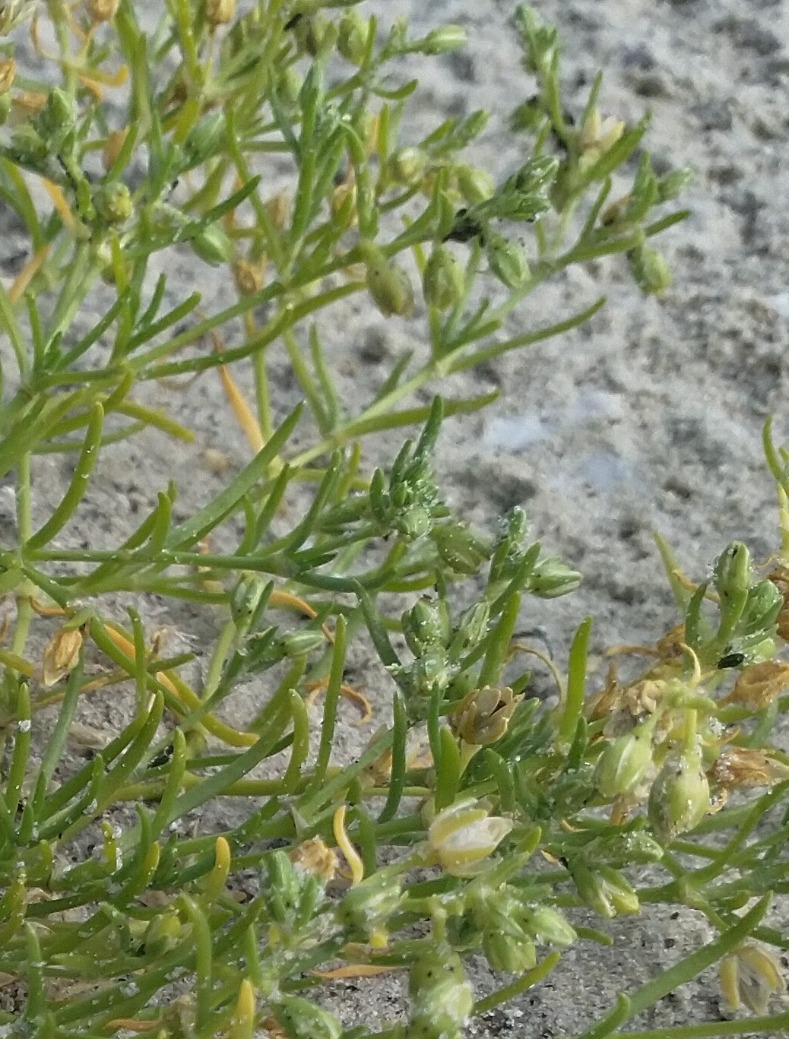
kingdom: Plantae
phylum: Tracheophyta
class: Magnoliopsida
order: Caryophyllales
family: Caryophyllaceae
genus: Spergularia
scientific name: Spergularia marina
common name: Kødet hindeknæ
